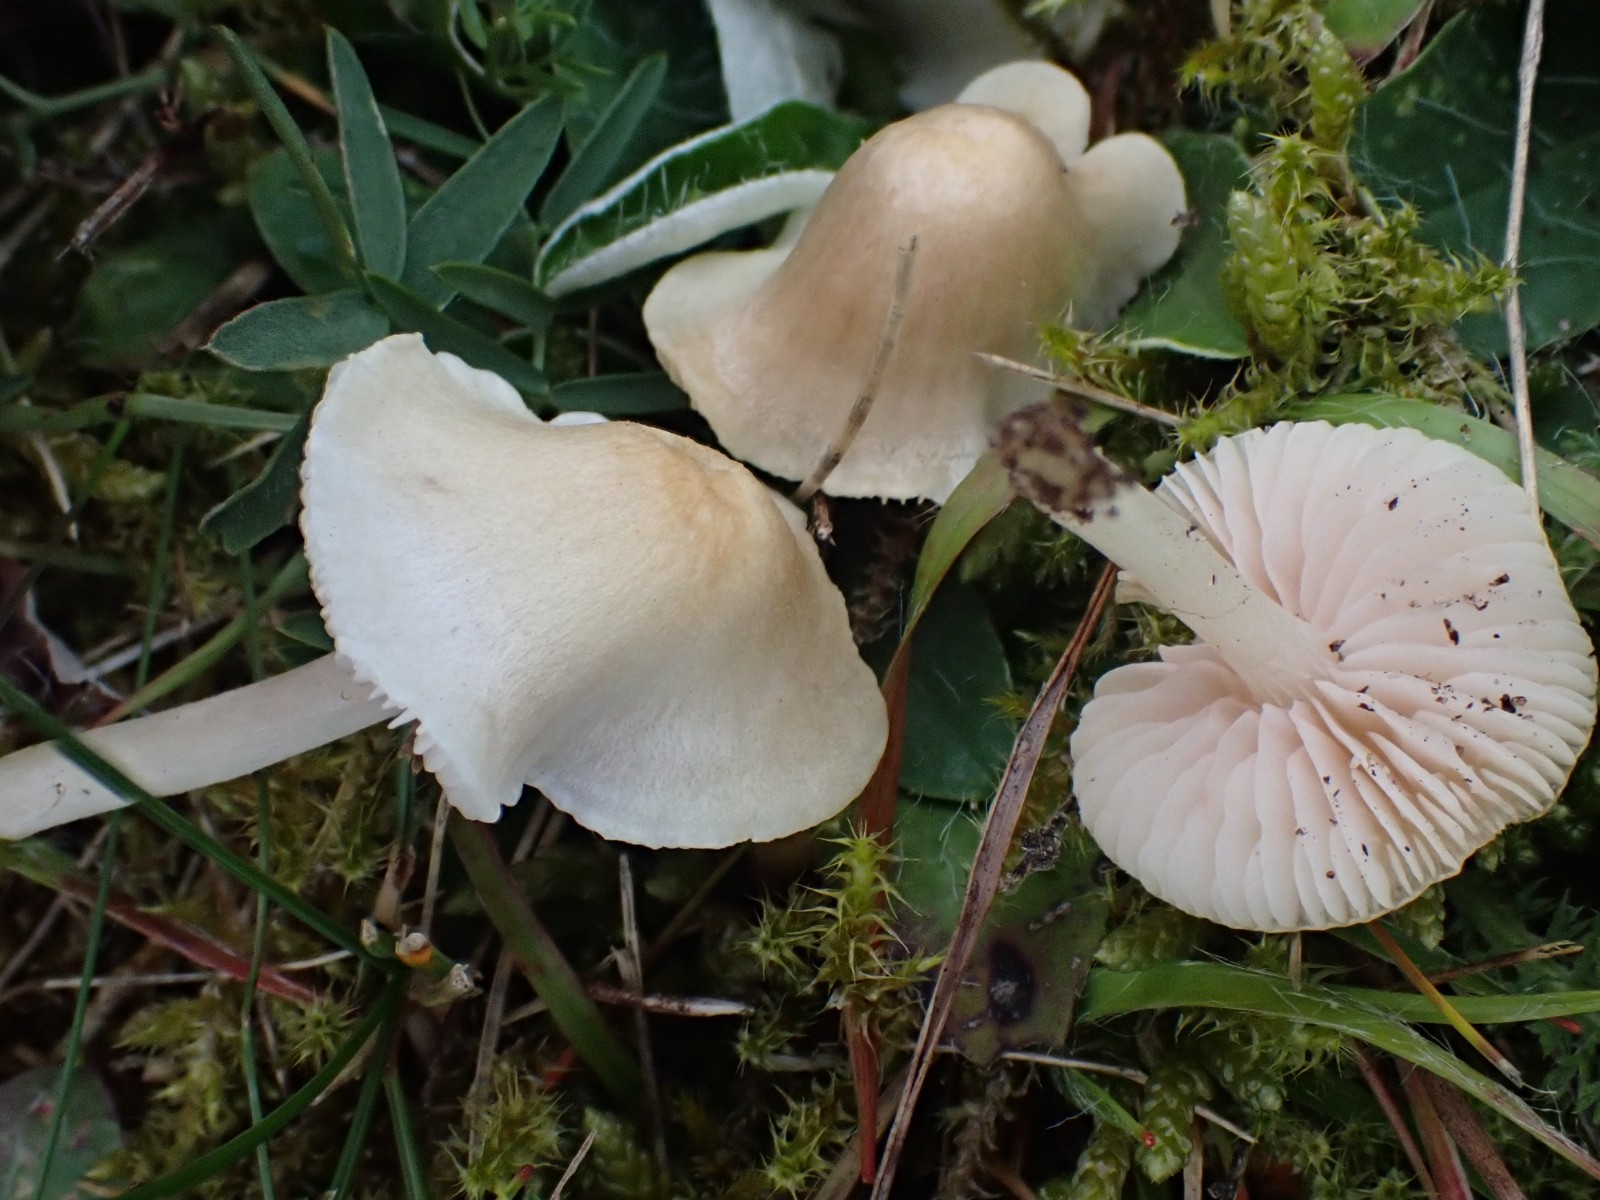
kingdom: Fungi
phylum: Basidiomycota
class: Agaricomycetes
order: Agaricales
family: Entolomataceae
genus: Entoloma
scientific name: Entoloma sericellum
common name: silkehvid rødblad
